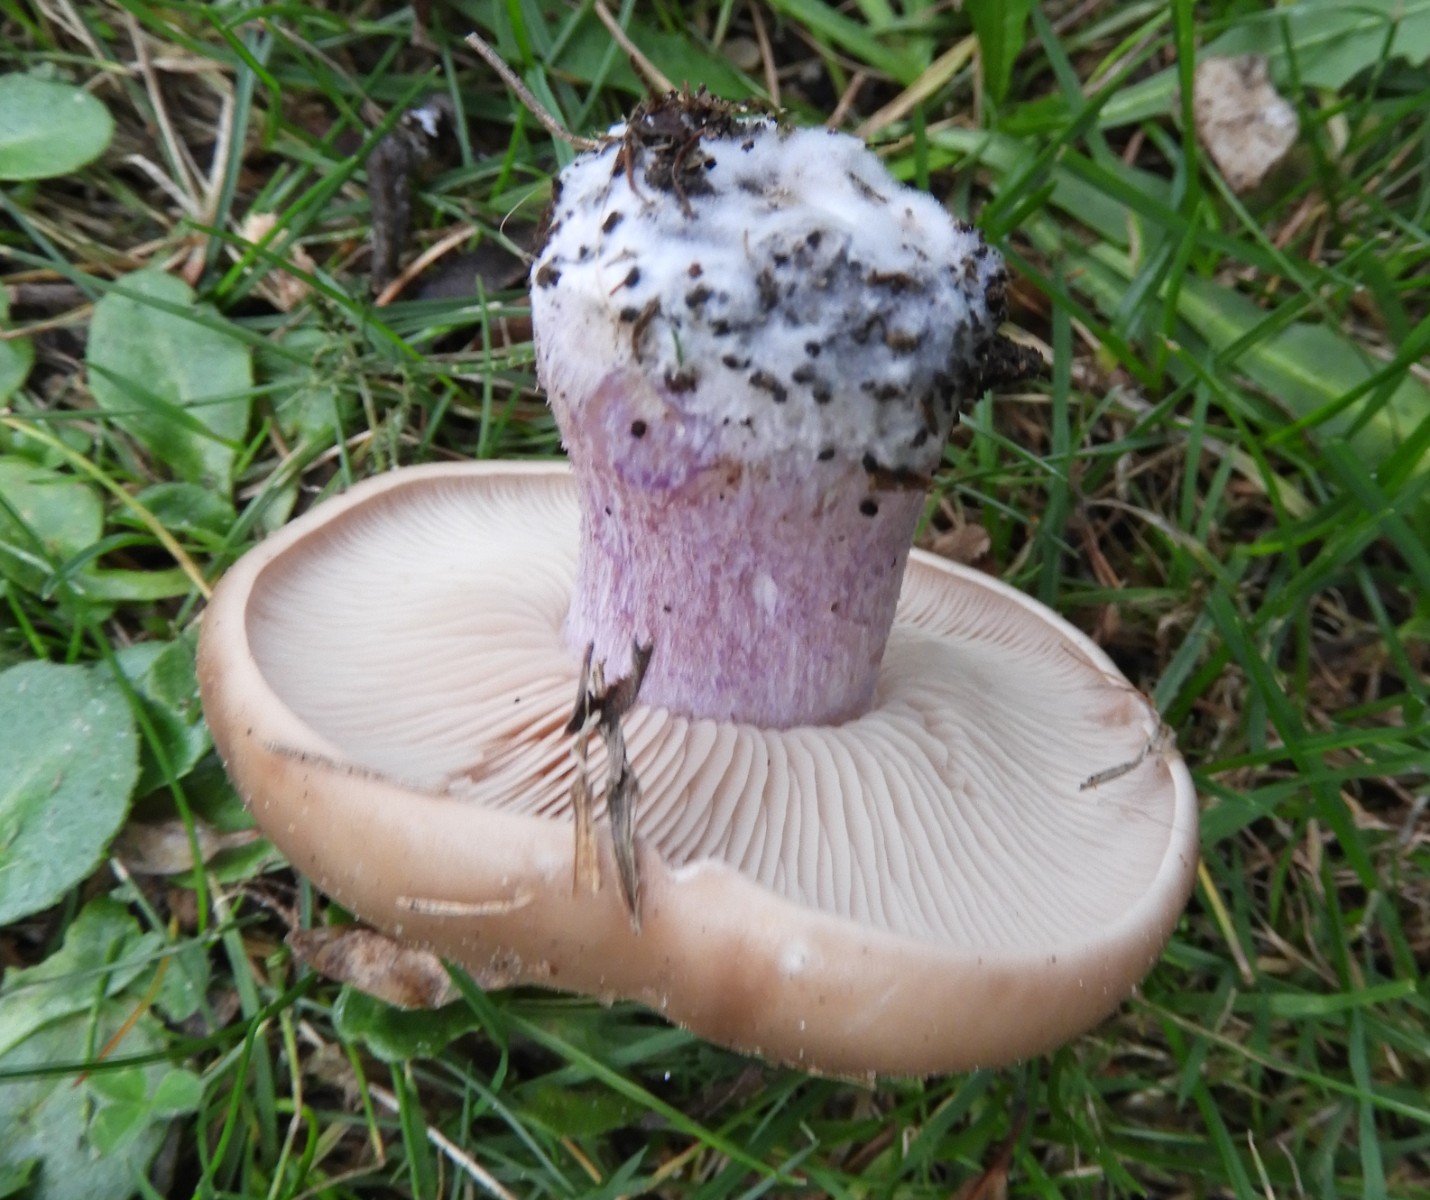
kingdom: Fungi
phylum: Basidiomycota
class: Agaricomycetes
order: Agaricales
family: Tricholomataceae
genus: Lepista
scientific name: Lepista personata
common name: bleg hekseringshat
